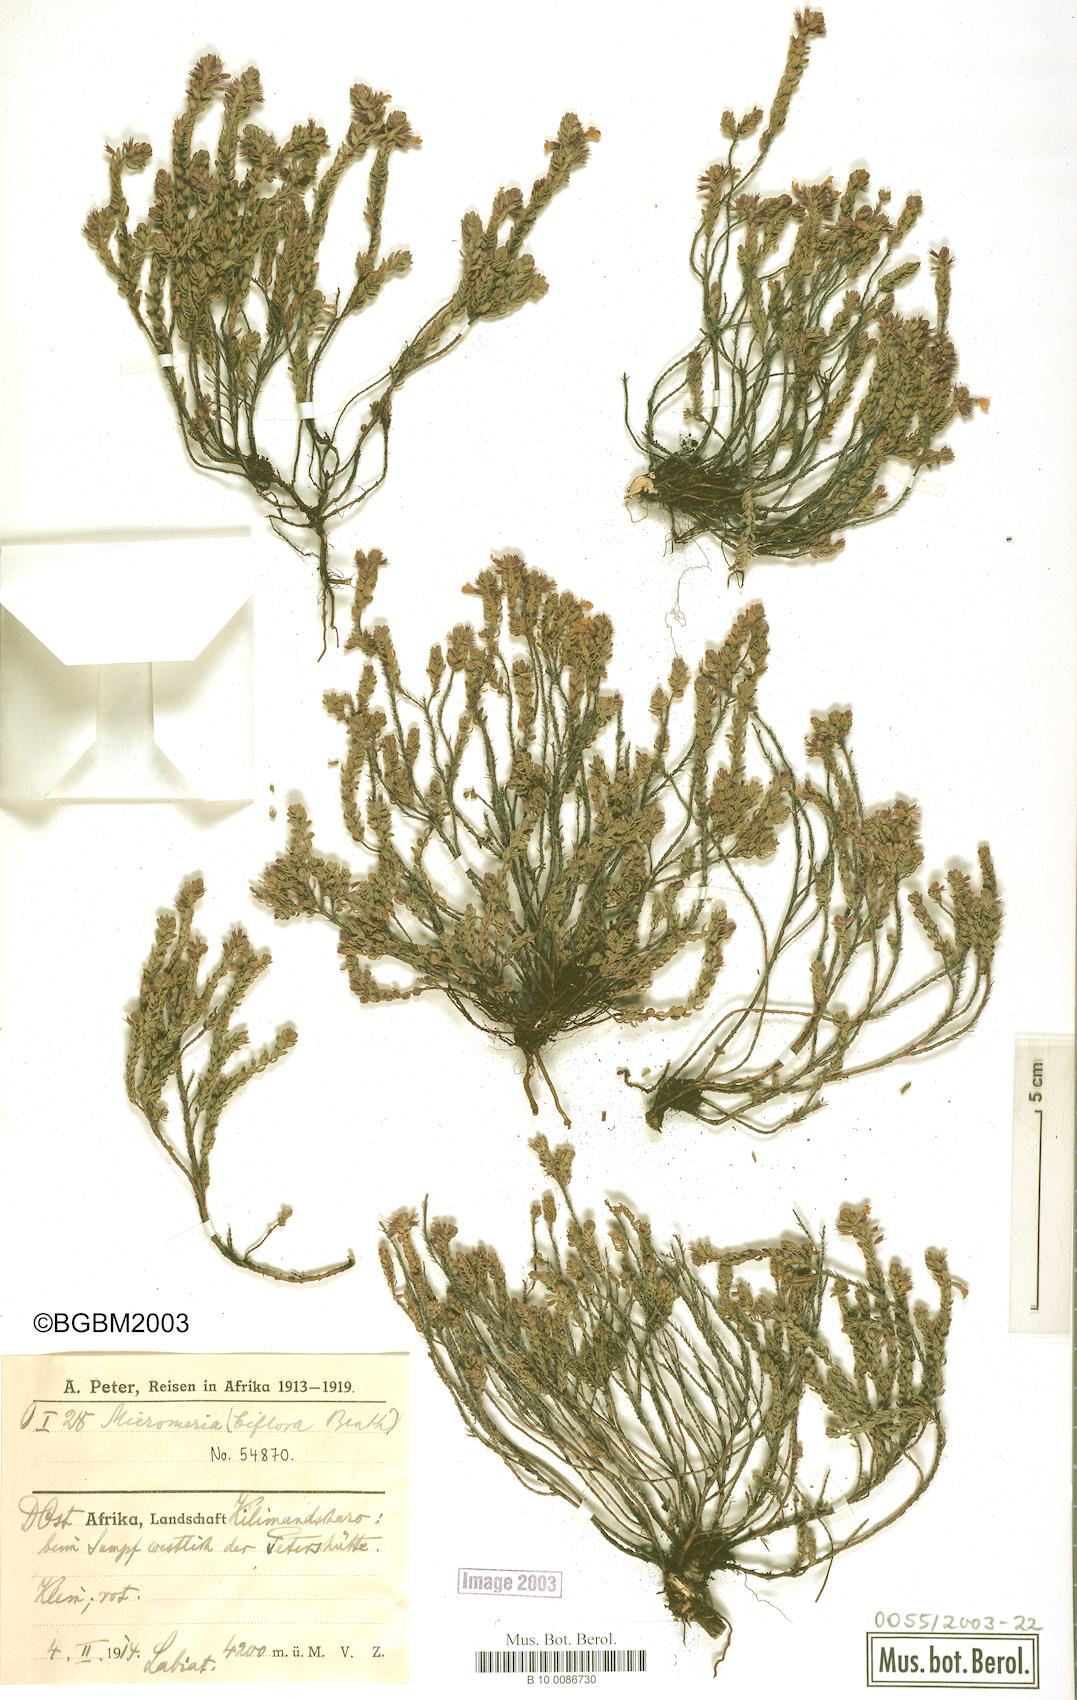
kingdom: Plantae
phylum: Tracheophyta
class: Magnoliopsida
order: Lamiales
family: Lamiaceae
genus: Micromeria
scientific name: Micromeria biflora
